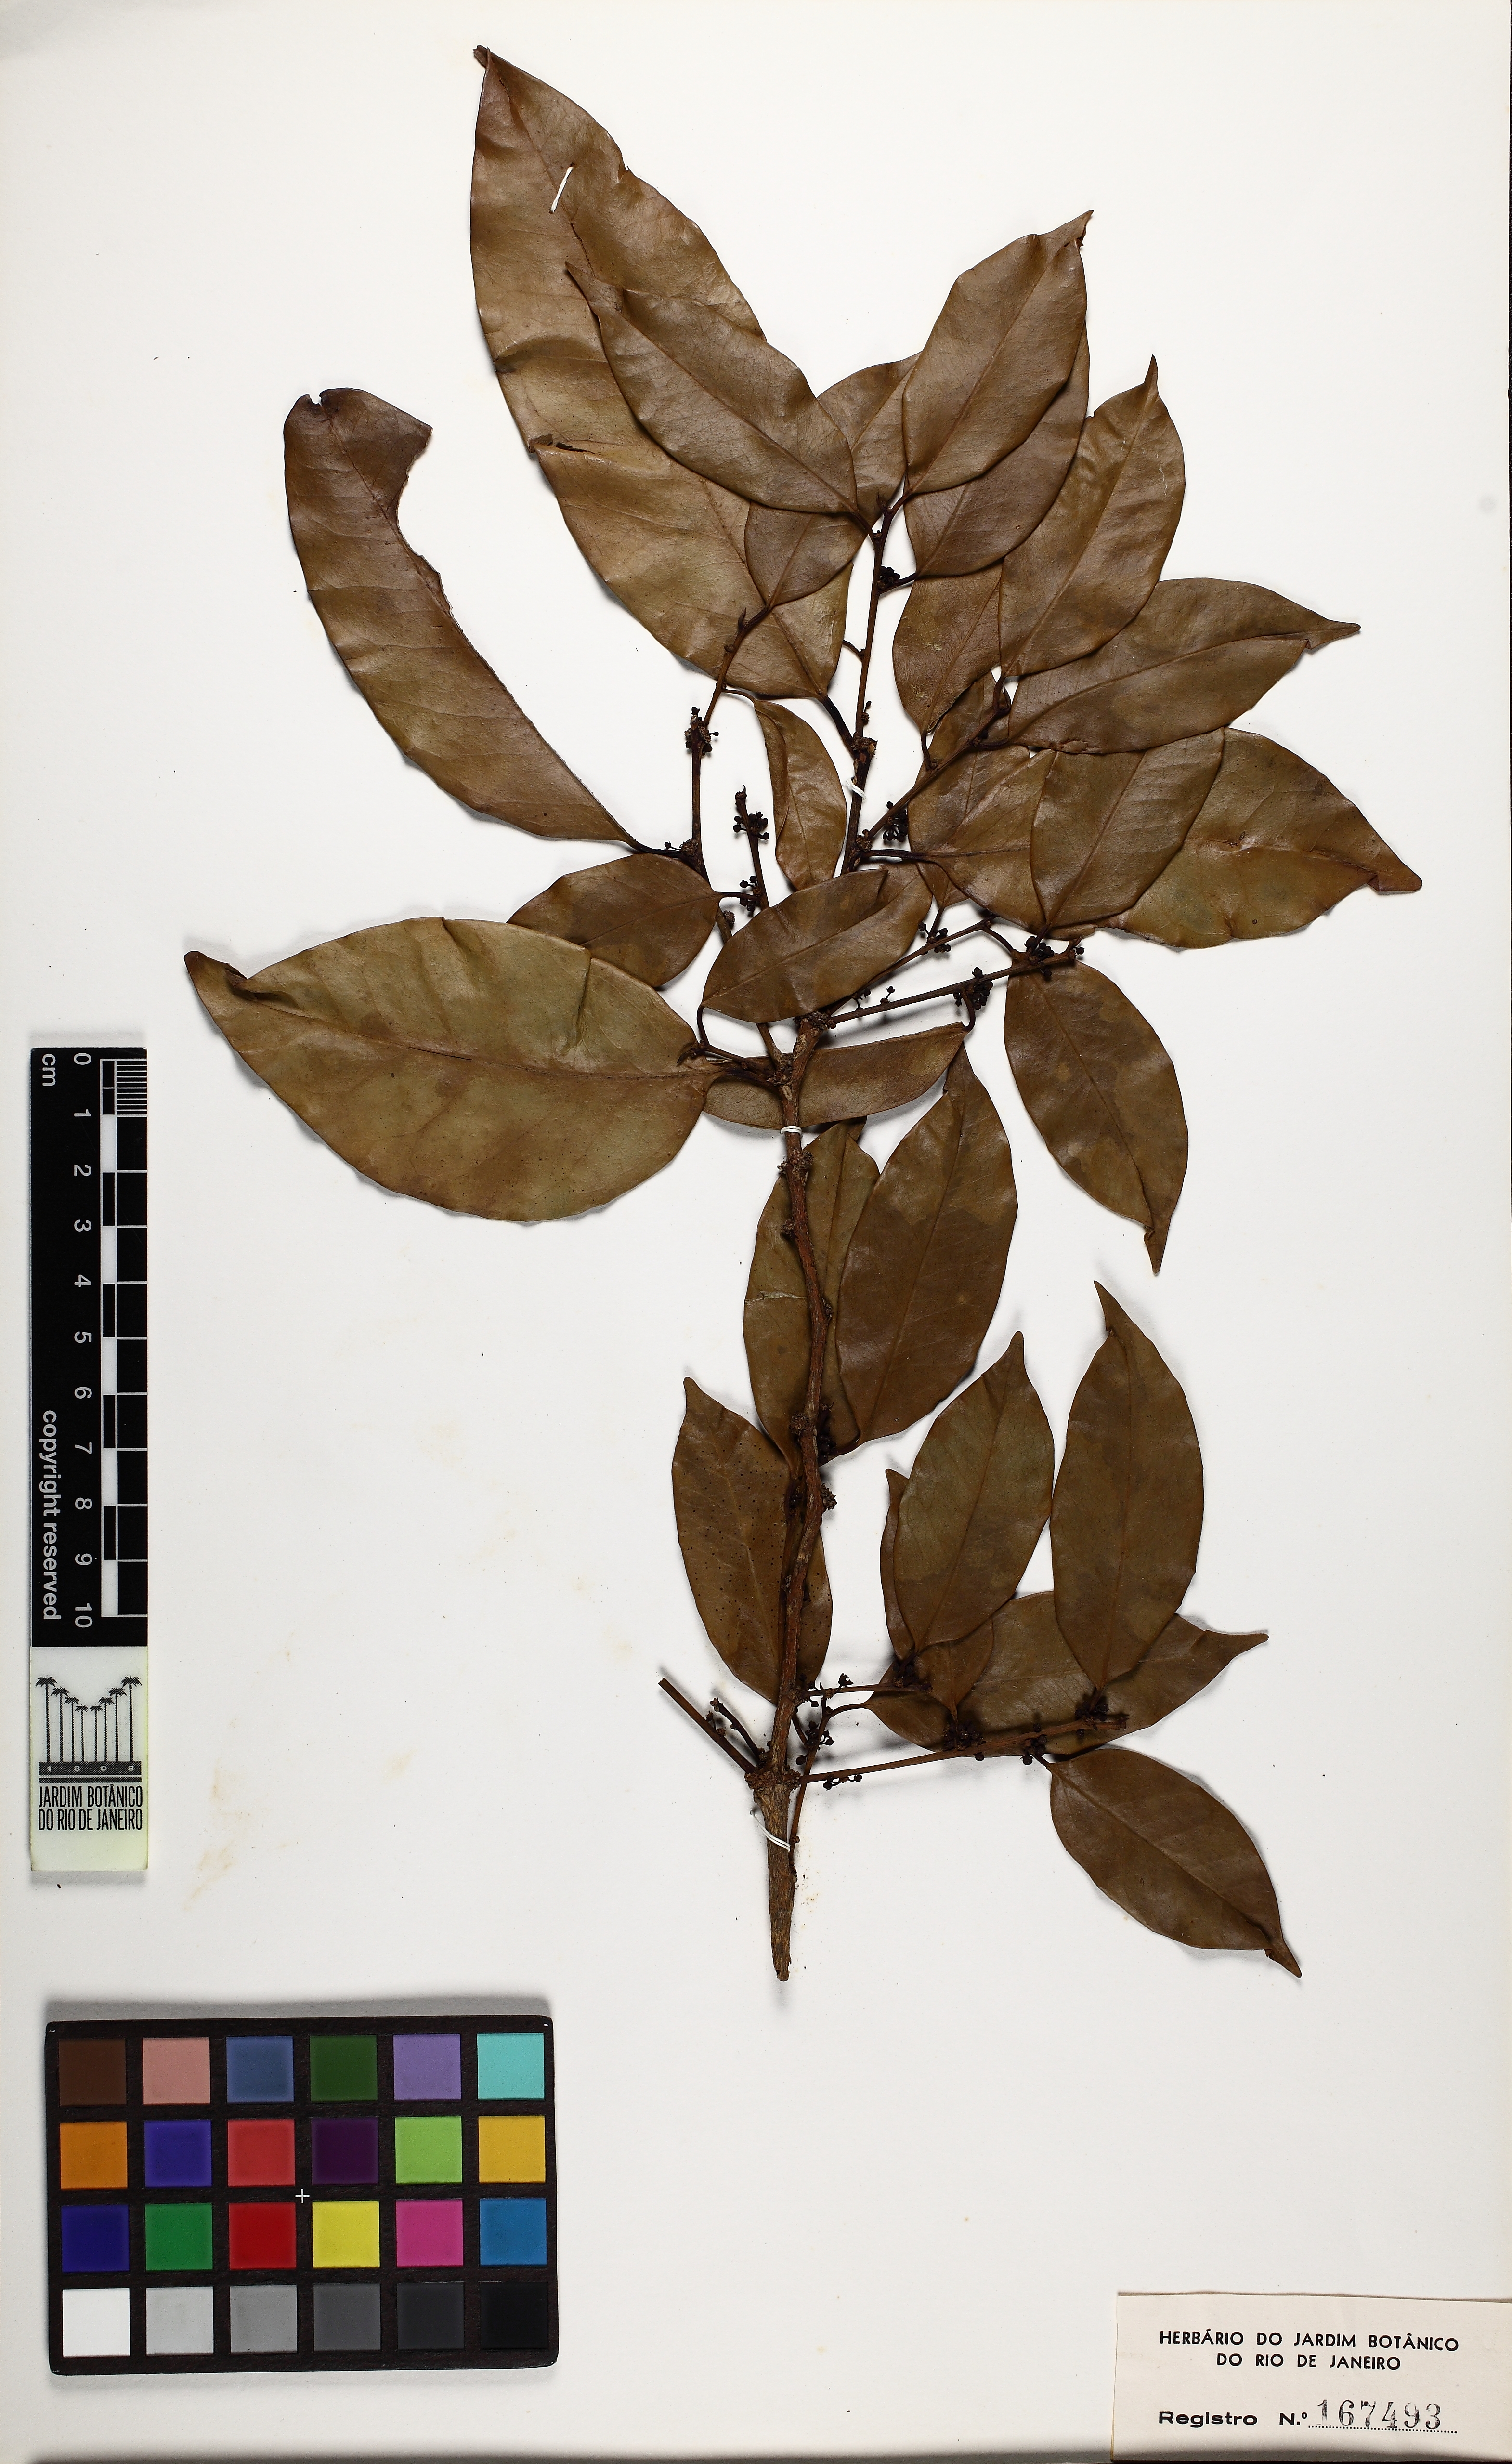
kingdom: Plantae
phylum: Tracheophyta
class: Magnoliopsida
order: Santalales
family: Erythropalaceae
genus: Heisteria
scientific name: Heisteria perianthomega
